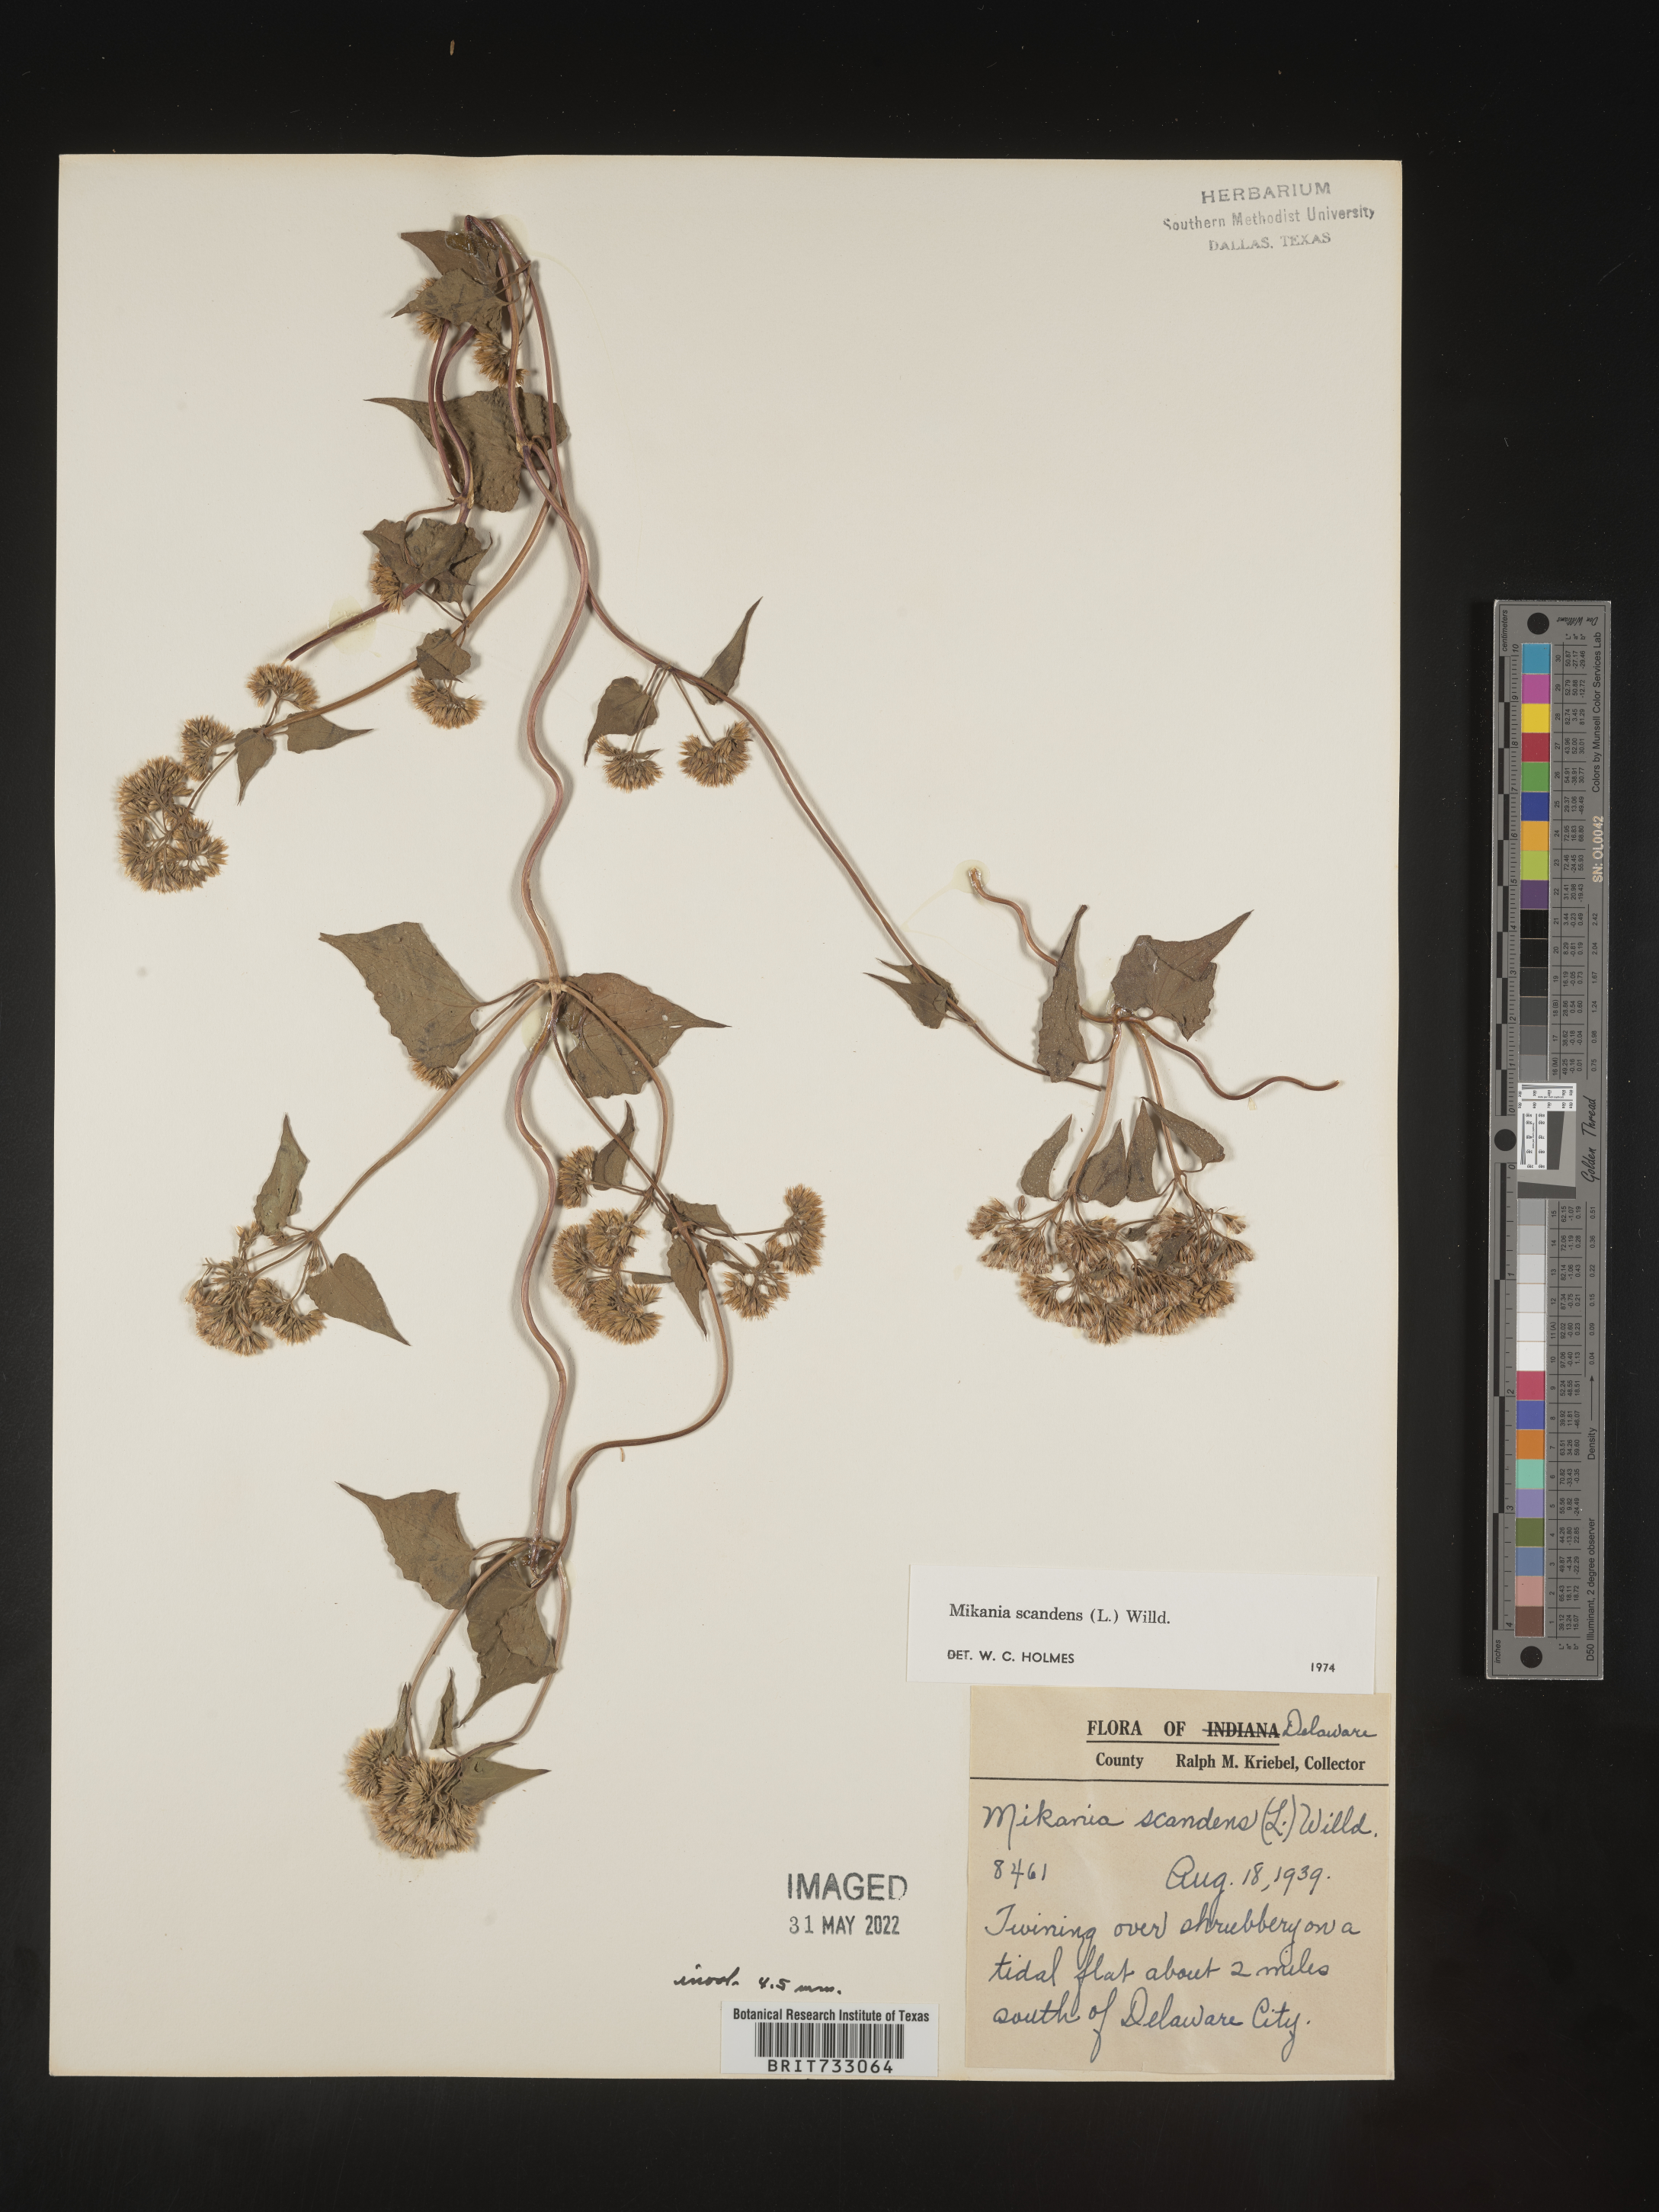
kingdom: Plantae
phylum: Tracheophyta
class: Magnoliopsida
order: Asterales
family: Asteraceae
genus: Mikania
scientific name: Mikania scandens
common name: Climbing hempvine
